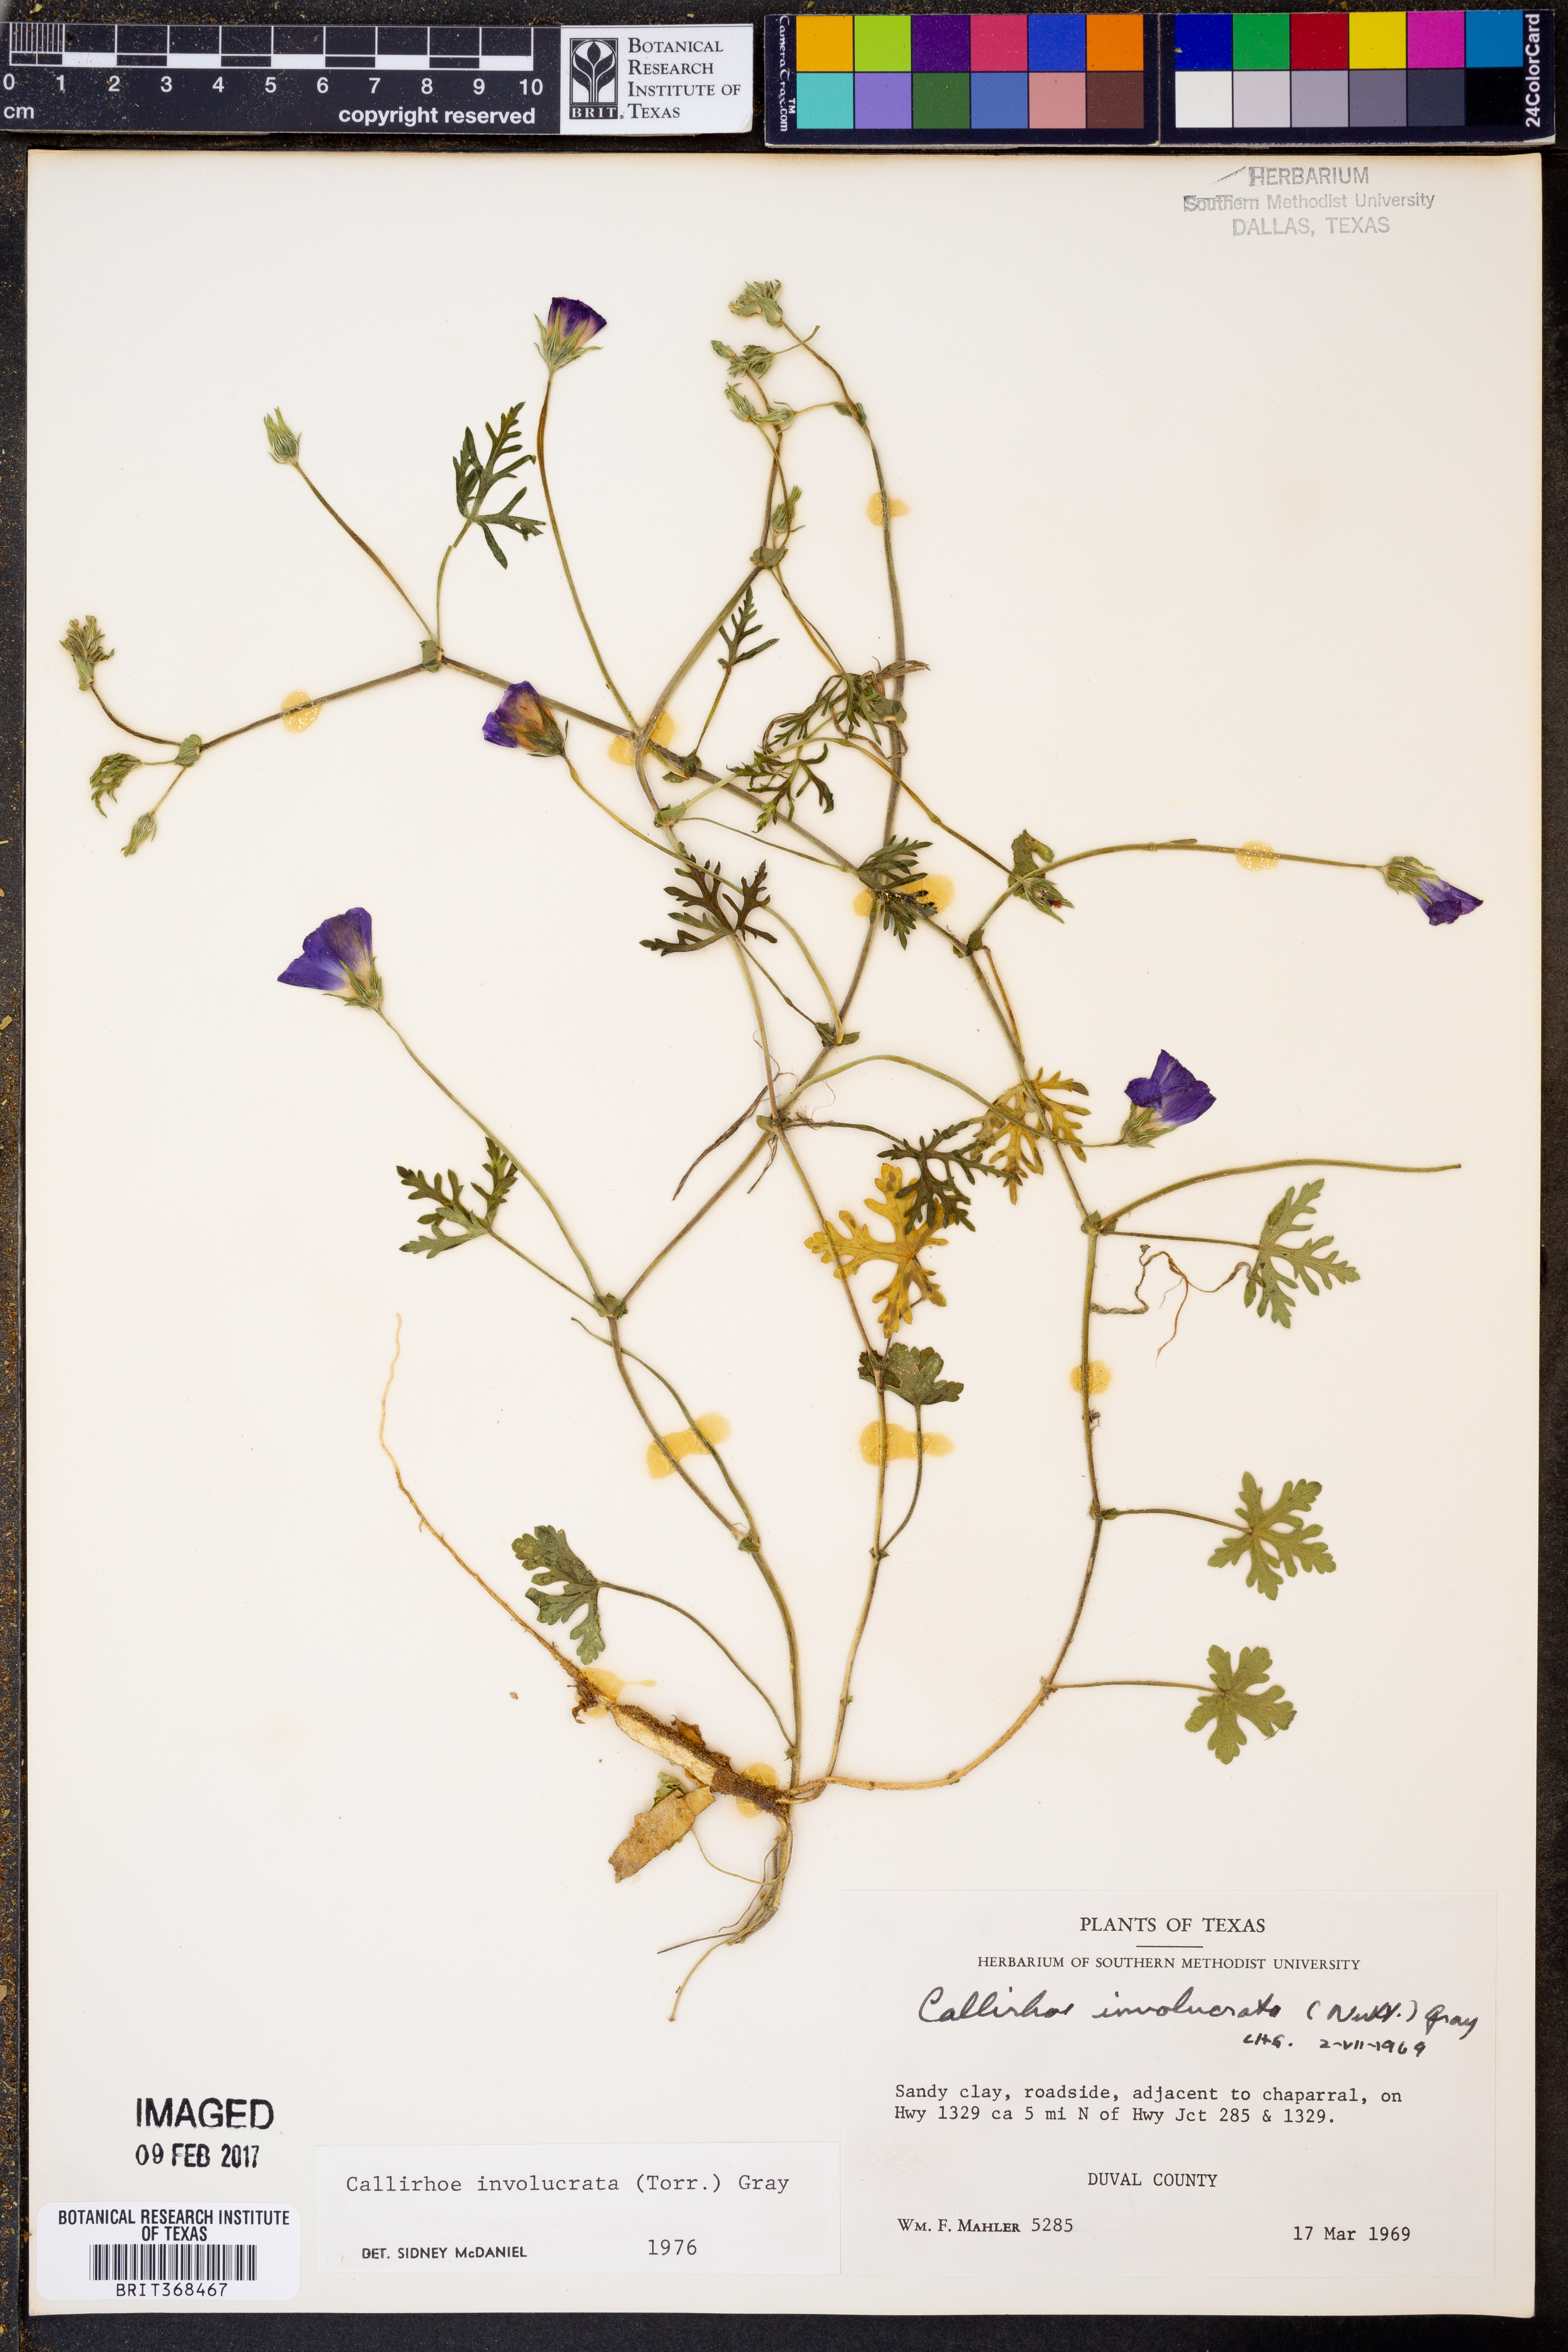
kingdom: Plantae
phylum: Tracheophyta
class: Magnoliopsida
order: Malvales
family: Malvaceae
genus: Callirhoe
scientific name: Callirhoe involucrata
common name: Purple poppy-mallow
